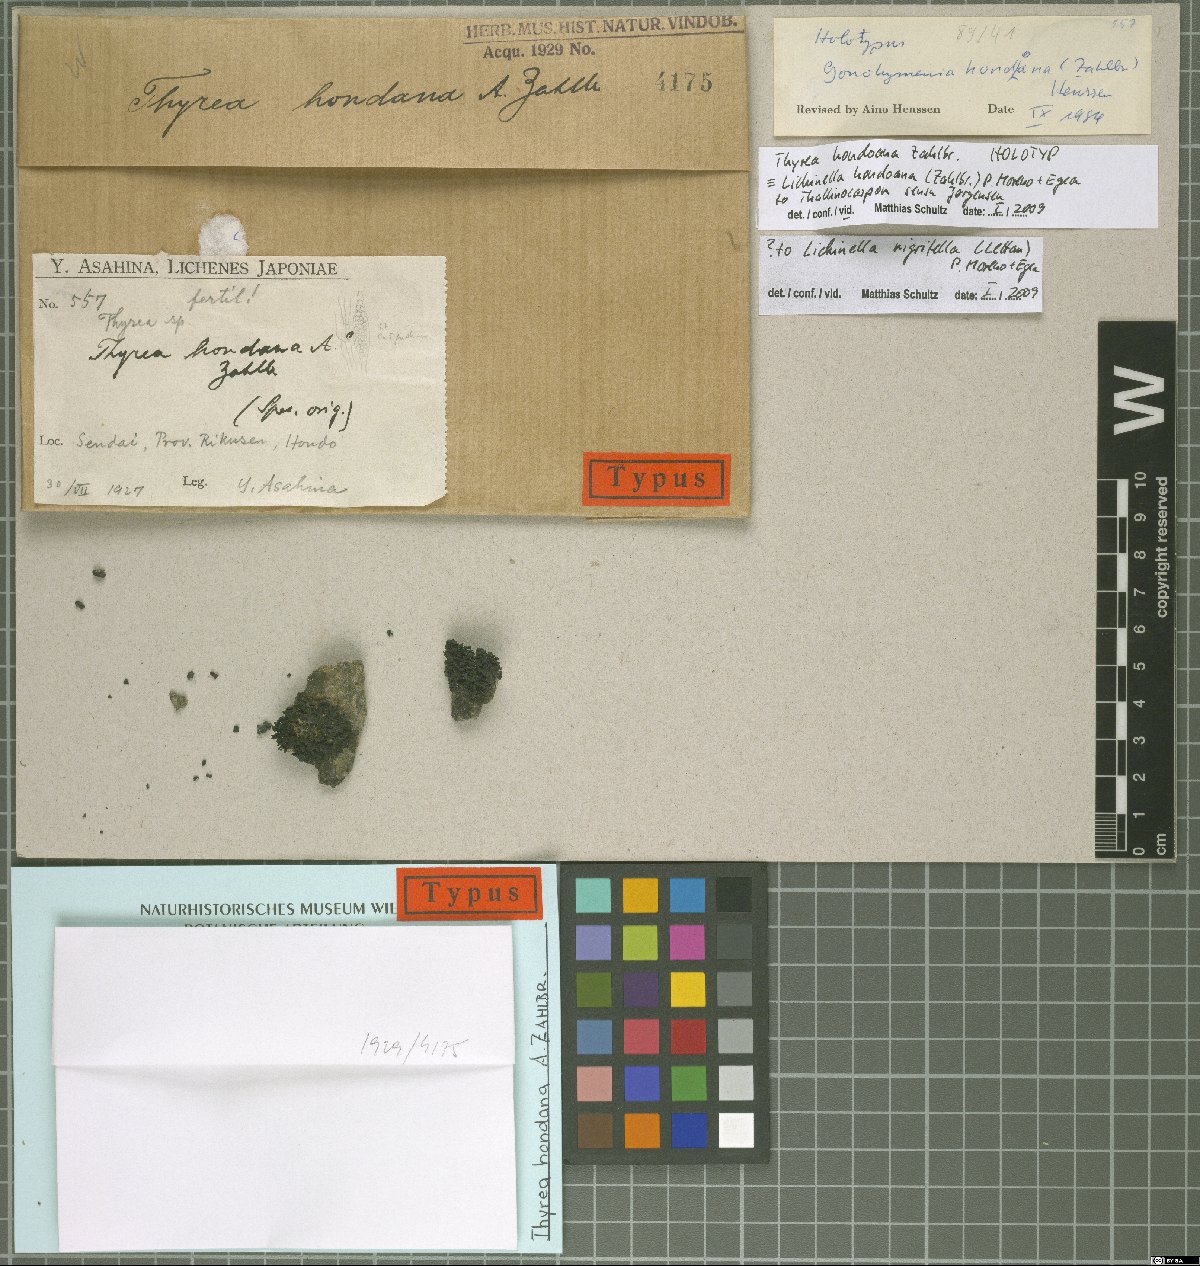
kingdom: Fungi
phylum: Ascomycota
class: Lichinomycetes
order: Lichinales
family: Lichinaceae
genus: Lichinella
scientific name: Lichinella hondoana
